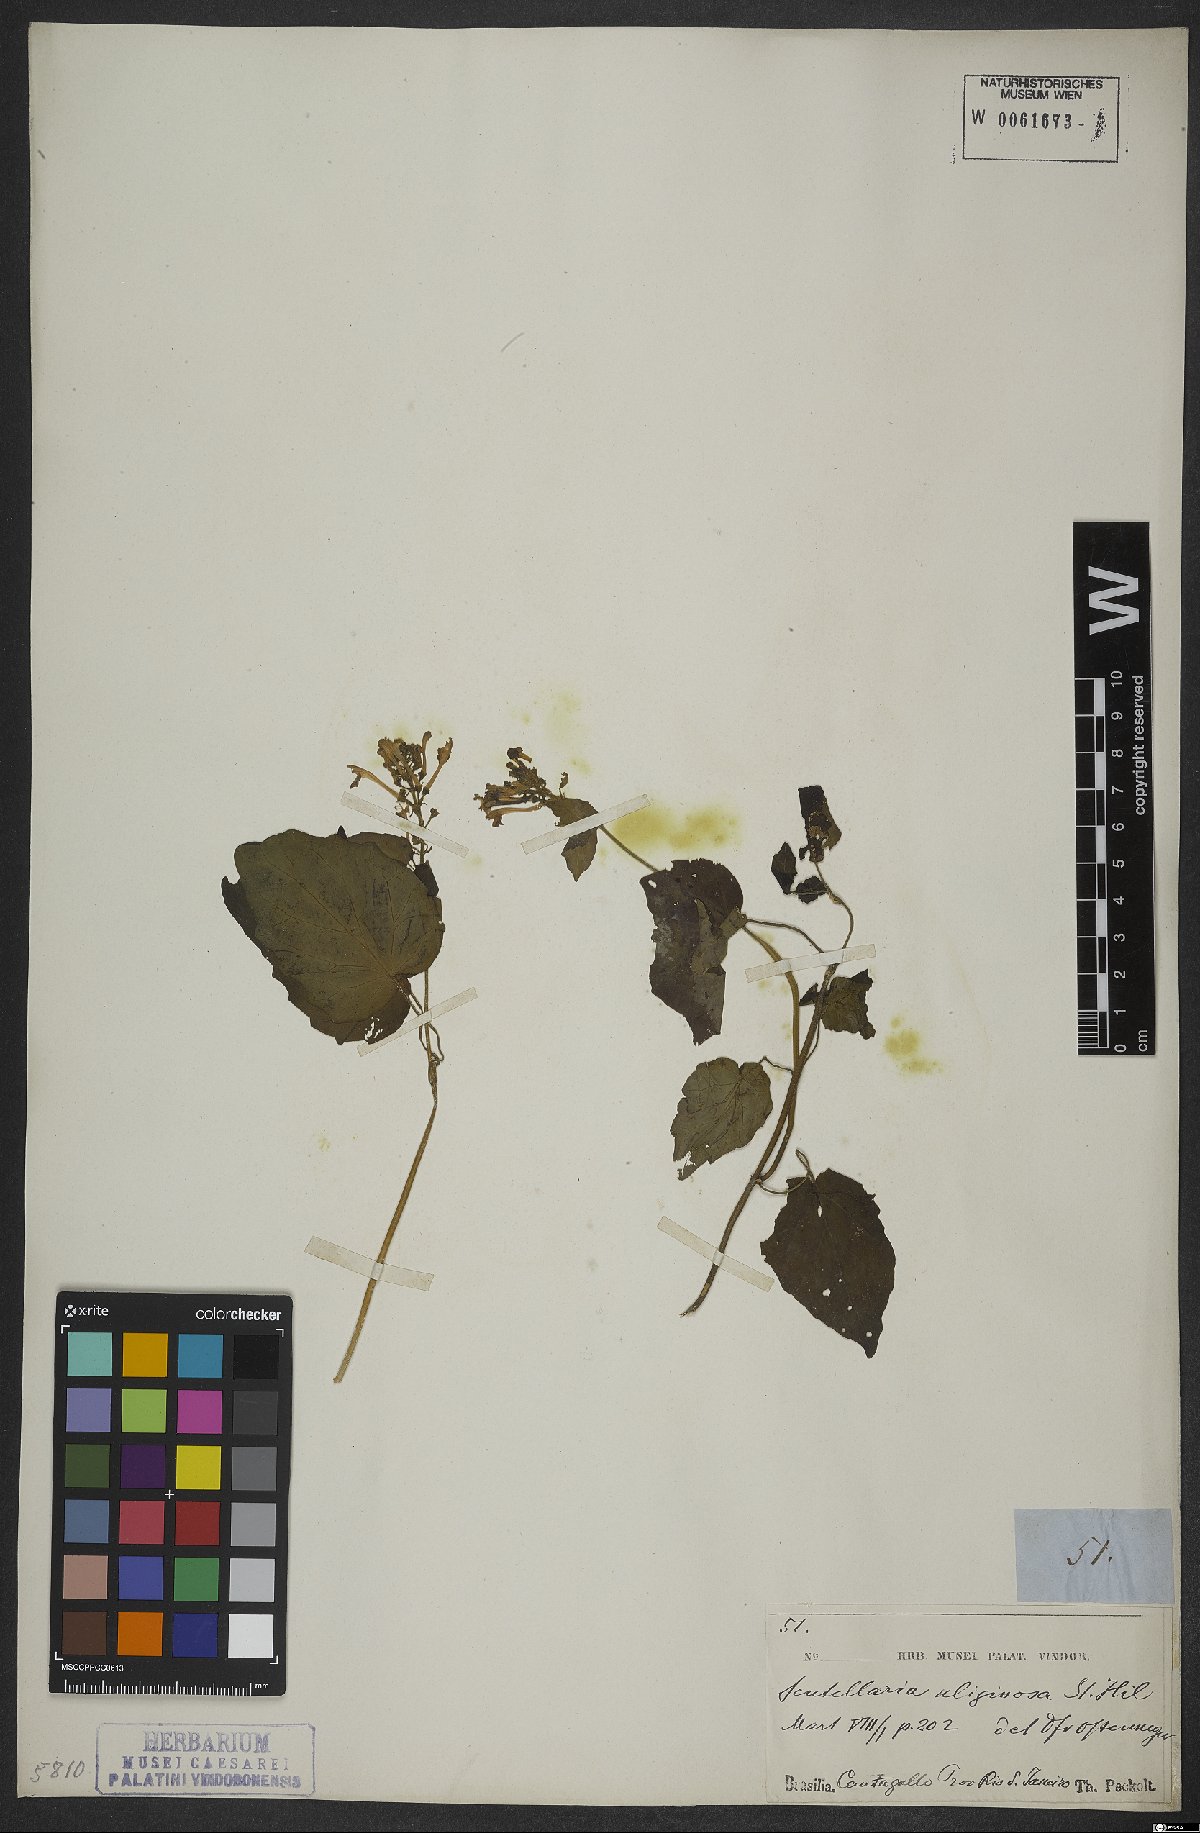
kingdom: Plantae
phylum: Tracheophyta
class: Magnoliopsida
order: Lamiales
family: Lamiaceae
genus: Scutellaria
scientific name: Scutellaria uliginosa
